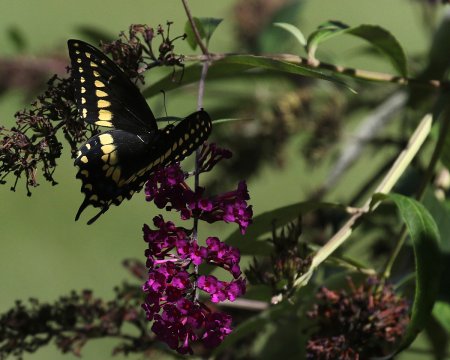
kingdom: Animalia
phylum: Arthropoda
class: Insecta
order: Lepidoptera
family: Papilionidae
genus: Papilio
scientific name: Papilio polyxenes
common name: Black Swallowtail
